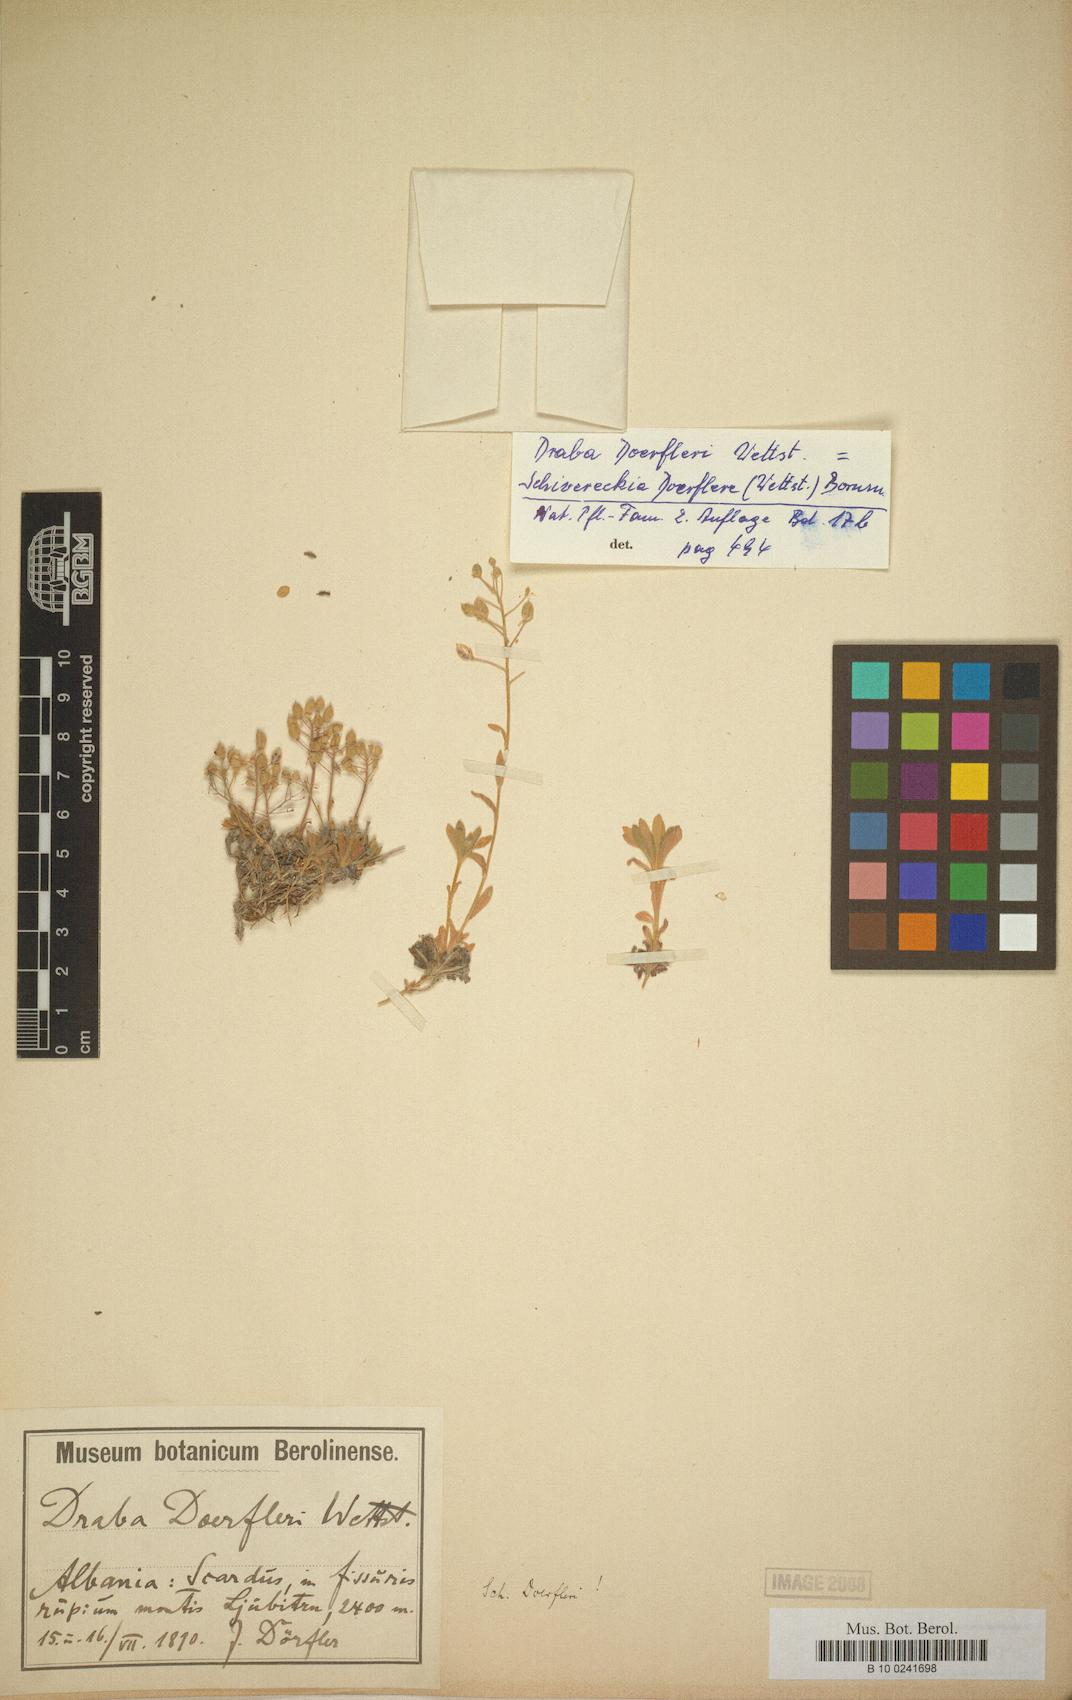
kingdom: Plantae
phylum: Tracheophyta
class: Magnoliopsida
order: Brassicales
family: Brassicaceae
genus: Draba
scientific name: Draba doerfleri
